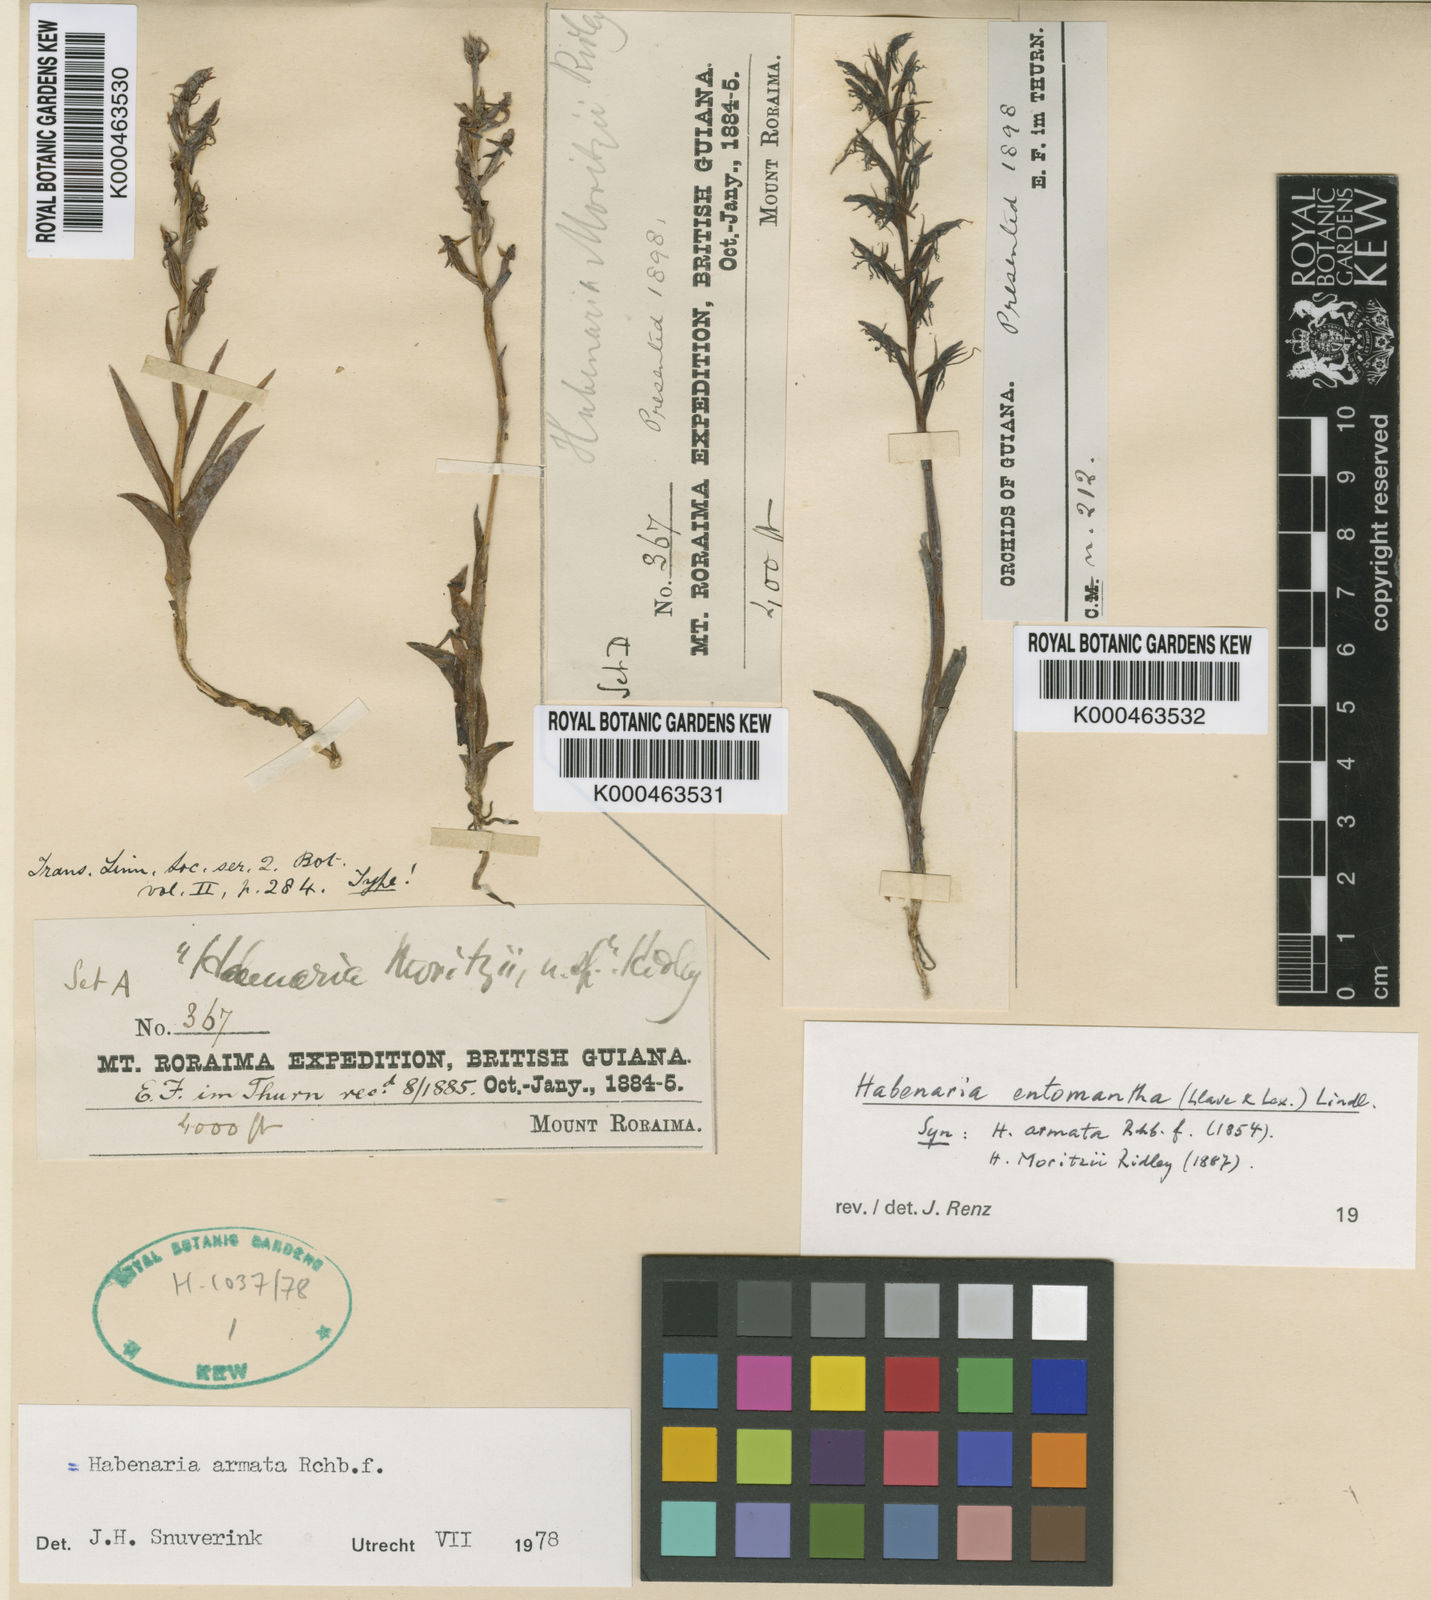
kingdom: Plantae
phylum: Tracheophyta
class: Liliopsida
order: Asparagales
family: Orchidaceae
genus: Habenaria
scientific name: Habenaria entomantha
